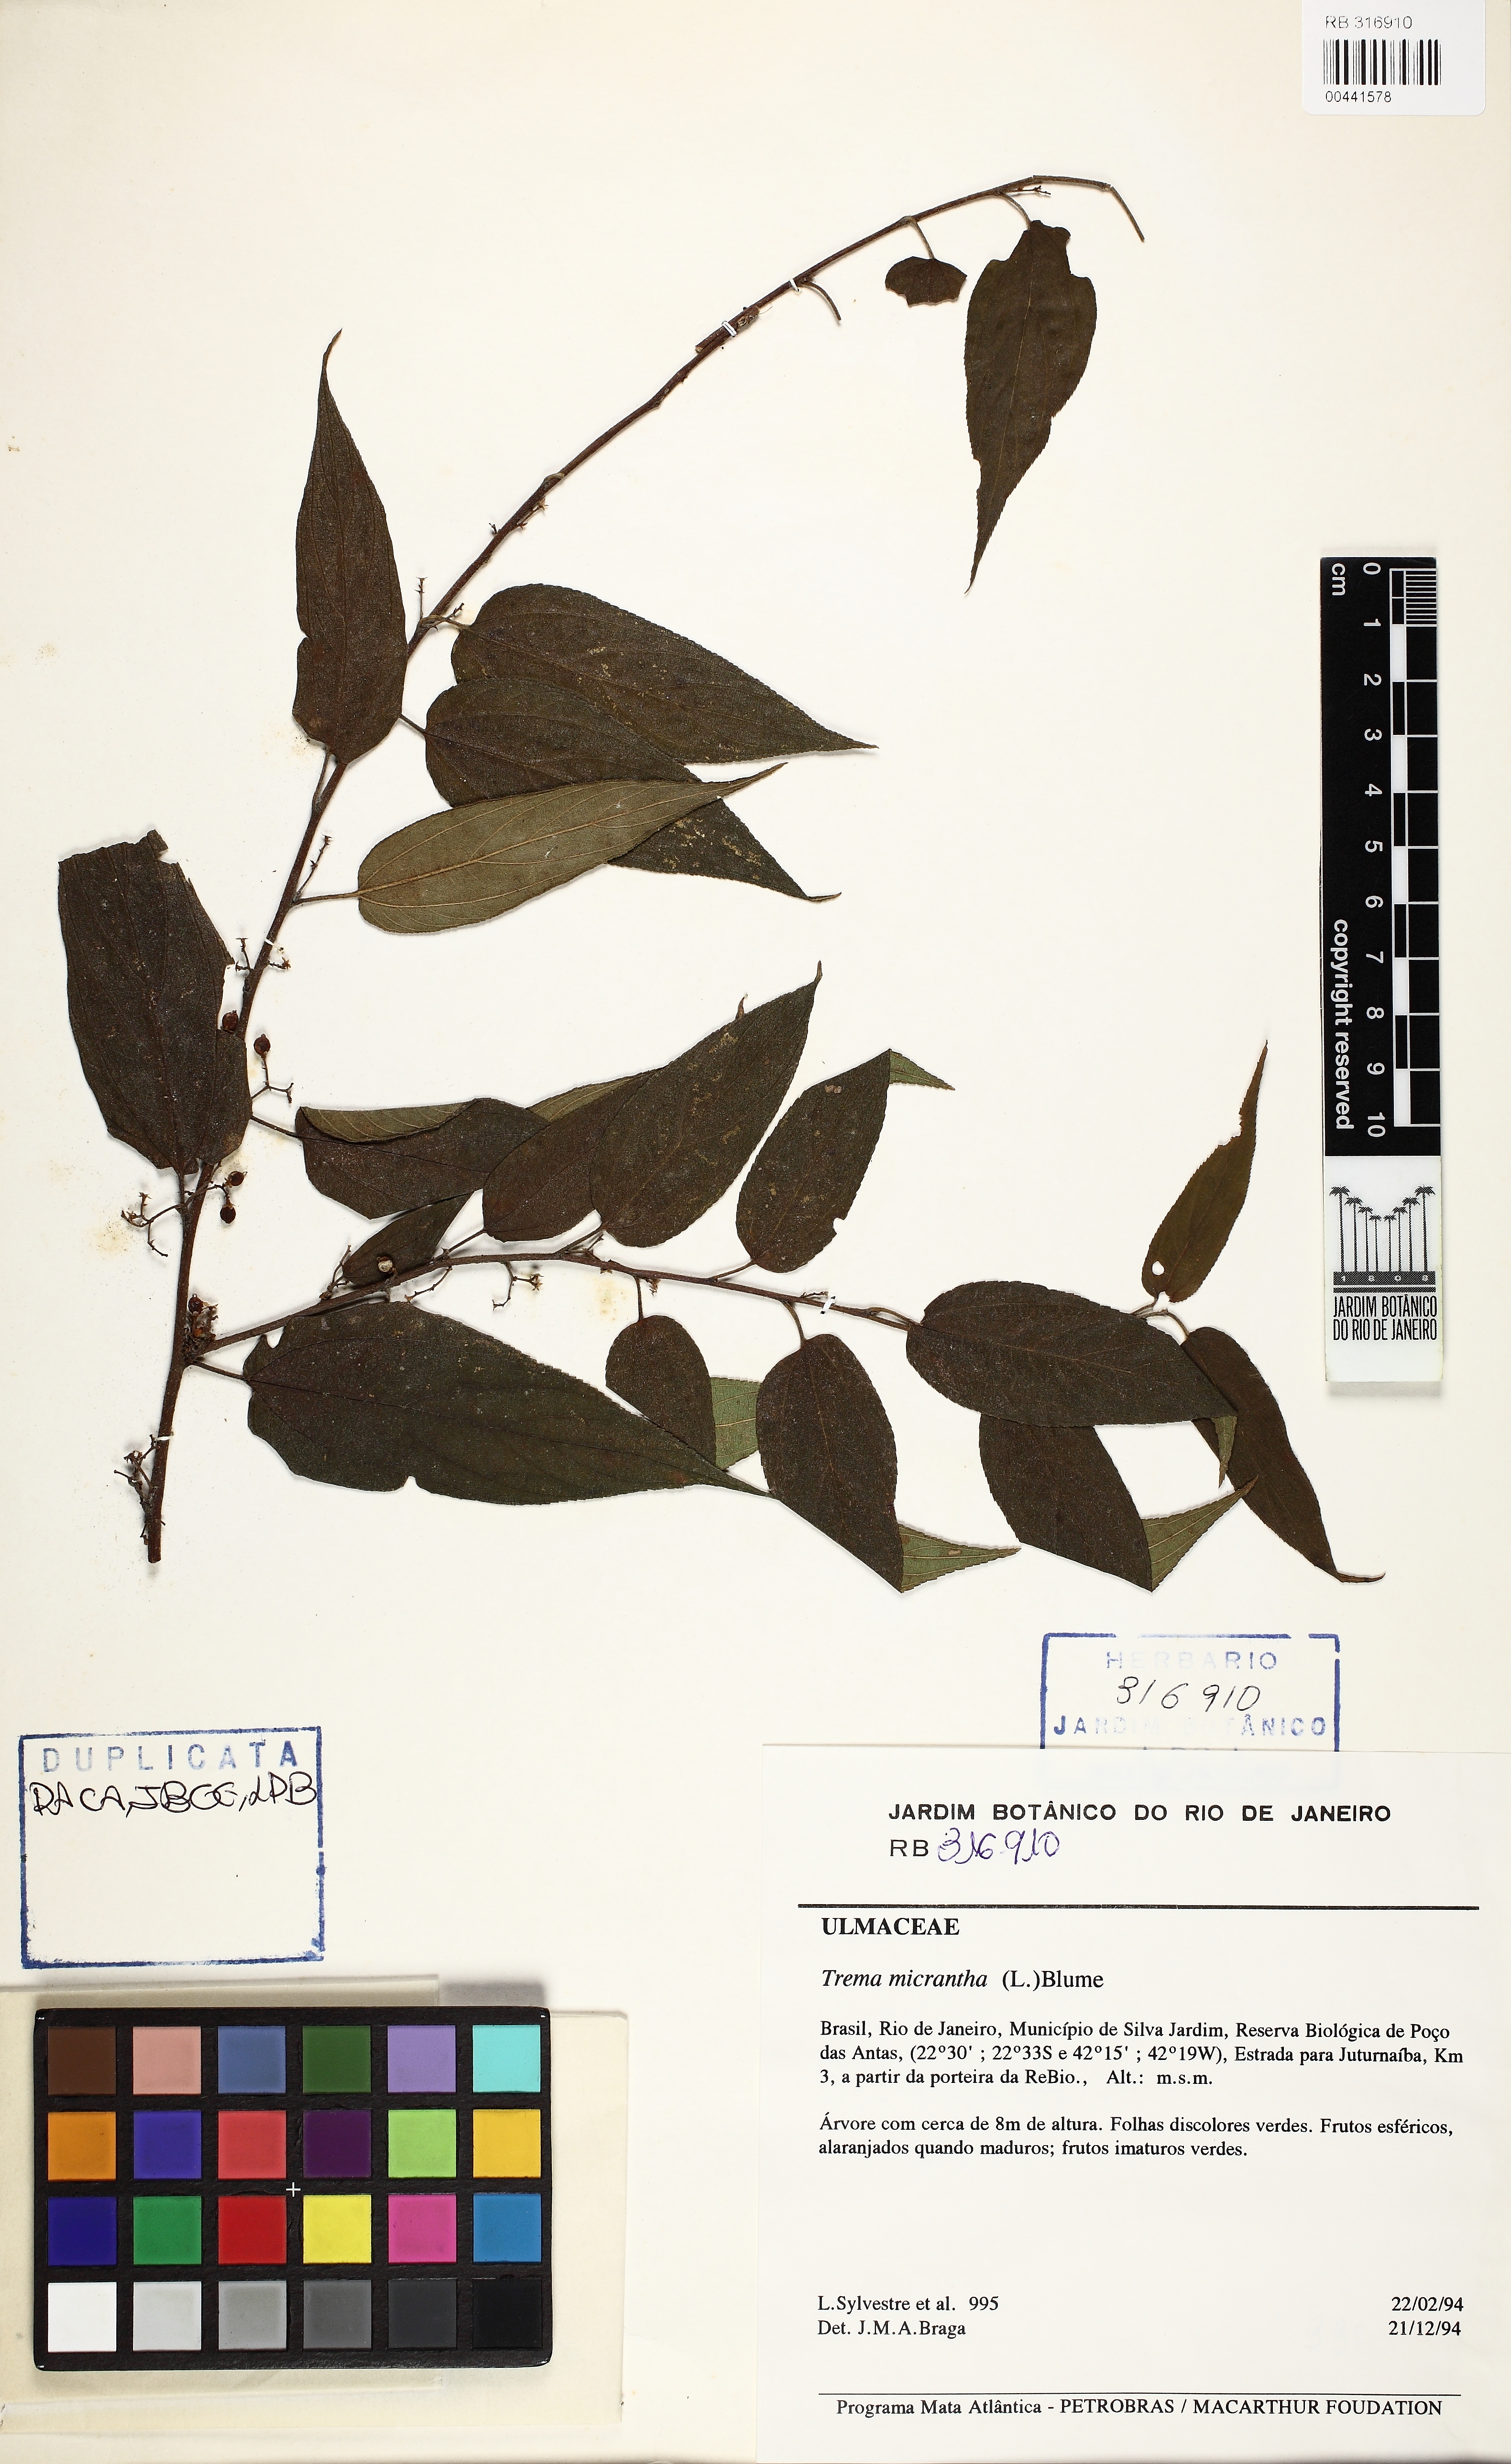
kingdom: Plantae
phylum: Tracheophyta
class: Magnoliopsida
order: Rosales
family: Cannabaceae
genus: Trema
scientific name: Trema micranthum
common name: Jamaican nettletree
